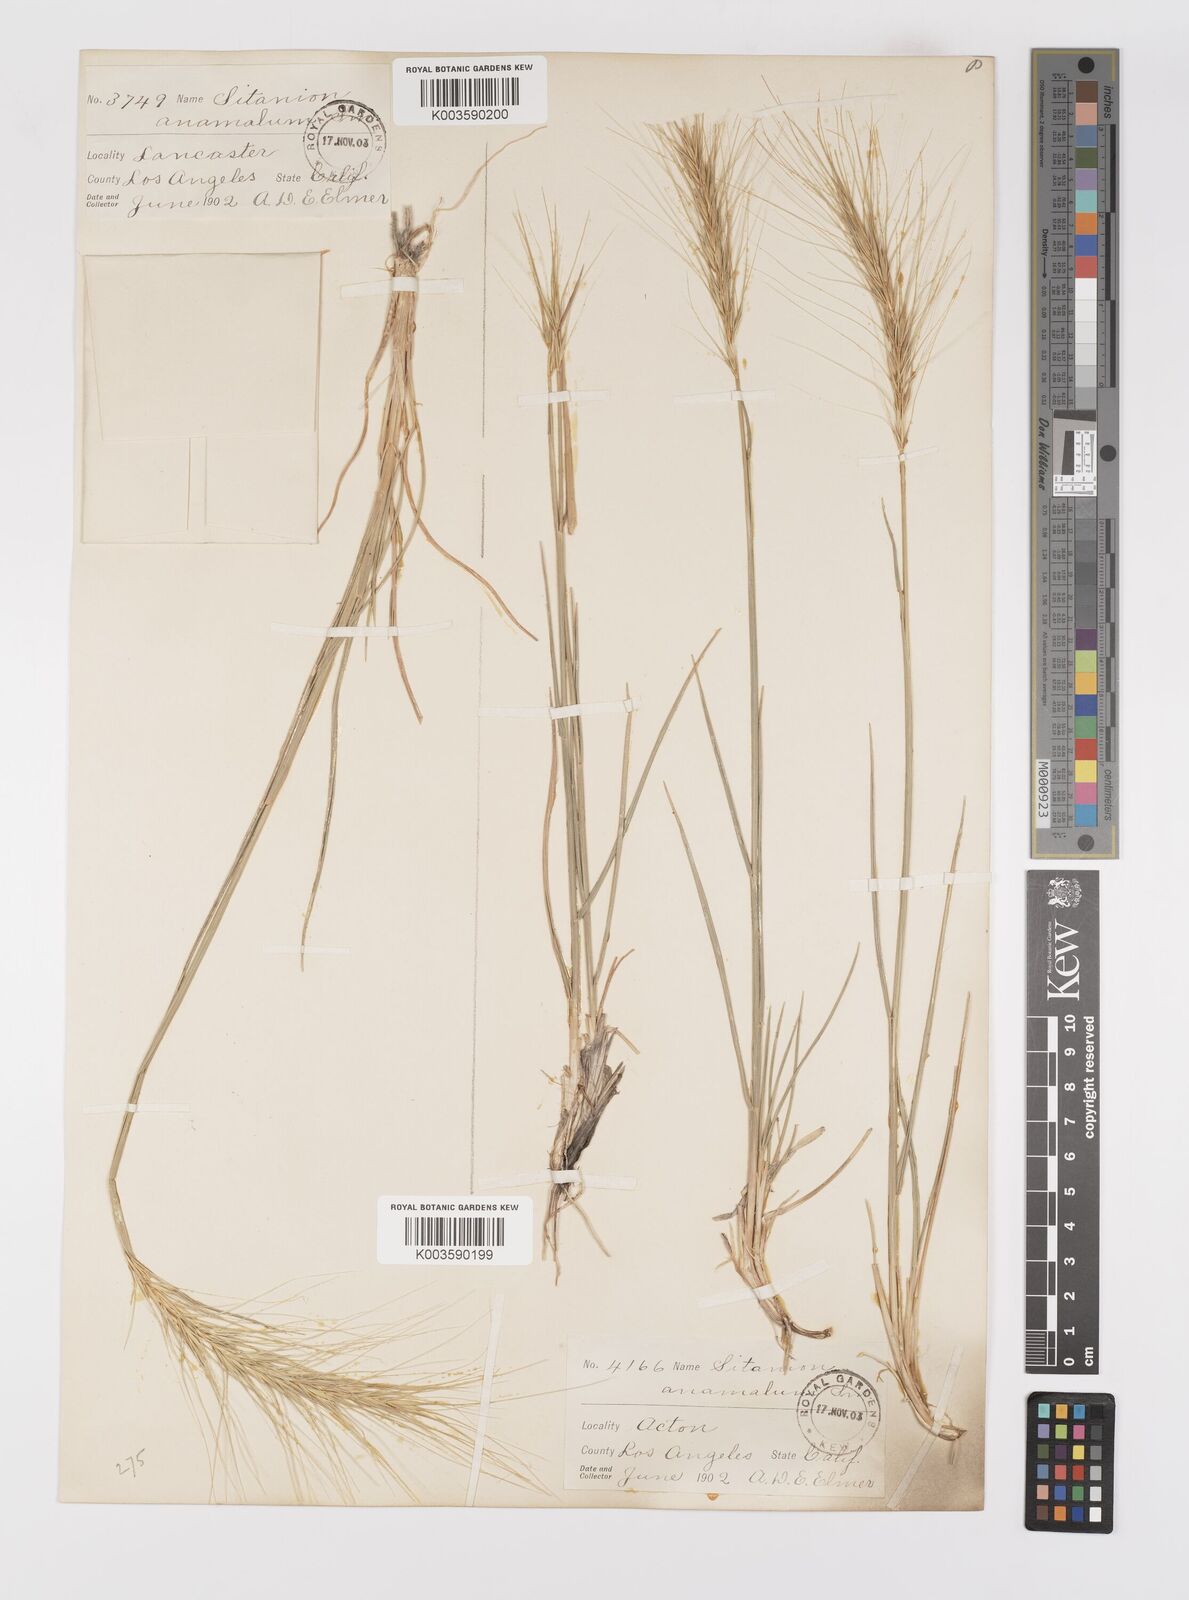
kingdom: Plantae
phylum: Tracheophyta
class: Liliopsida
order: Poales
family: Poaceae
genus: Elymus
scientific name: Elymus hansenii
